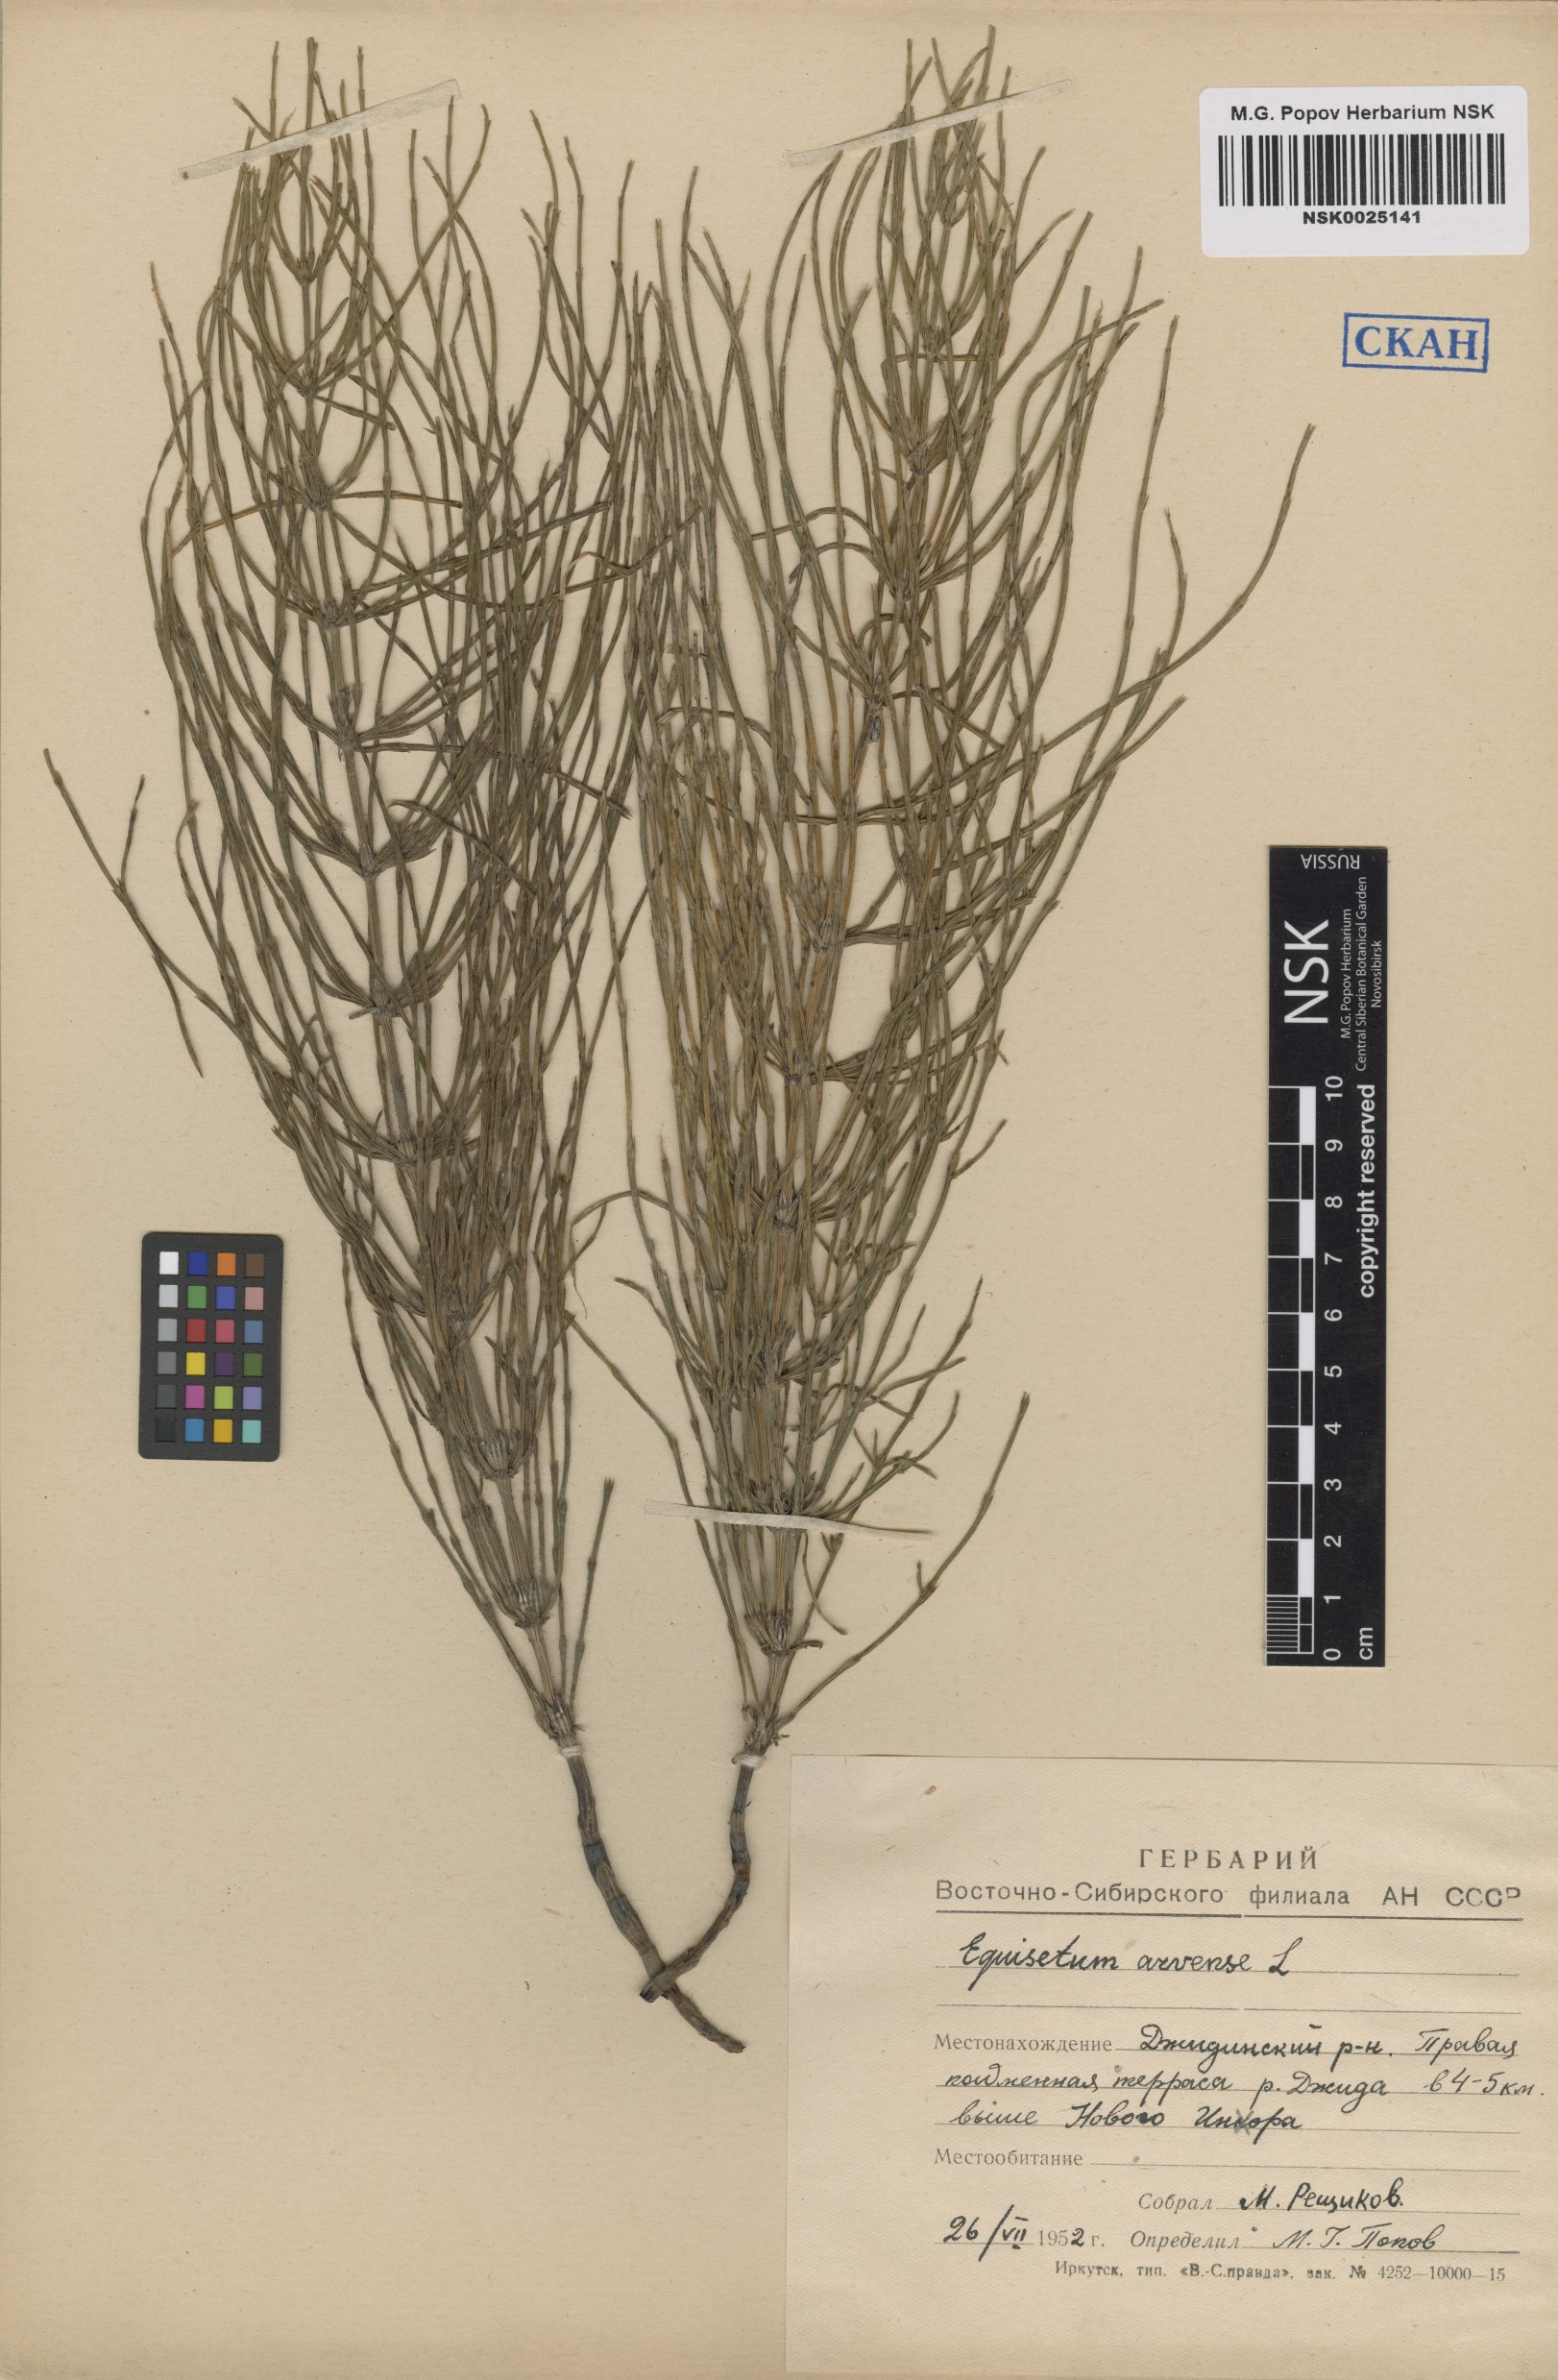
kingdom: Plantae
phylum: Tracheophyta
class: Polypodiopsida
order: Equisetales
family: Equisetaceae
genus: Equisetum
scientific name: Equisetum arvense
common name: Field horsetail
